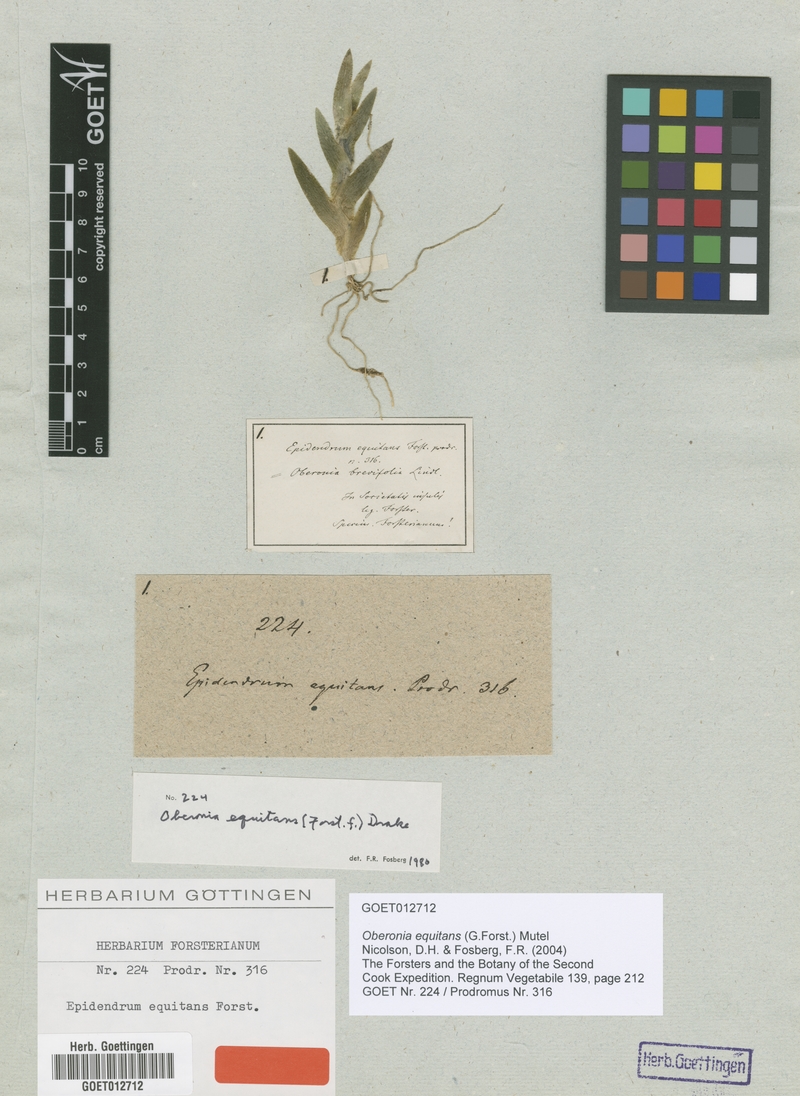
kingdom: Plantae
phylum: Tracheophyta
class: Liliopsida
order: Asparagales
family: Orchidaceae
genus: Oberonia
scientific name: Oberonia equitans
